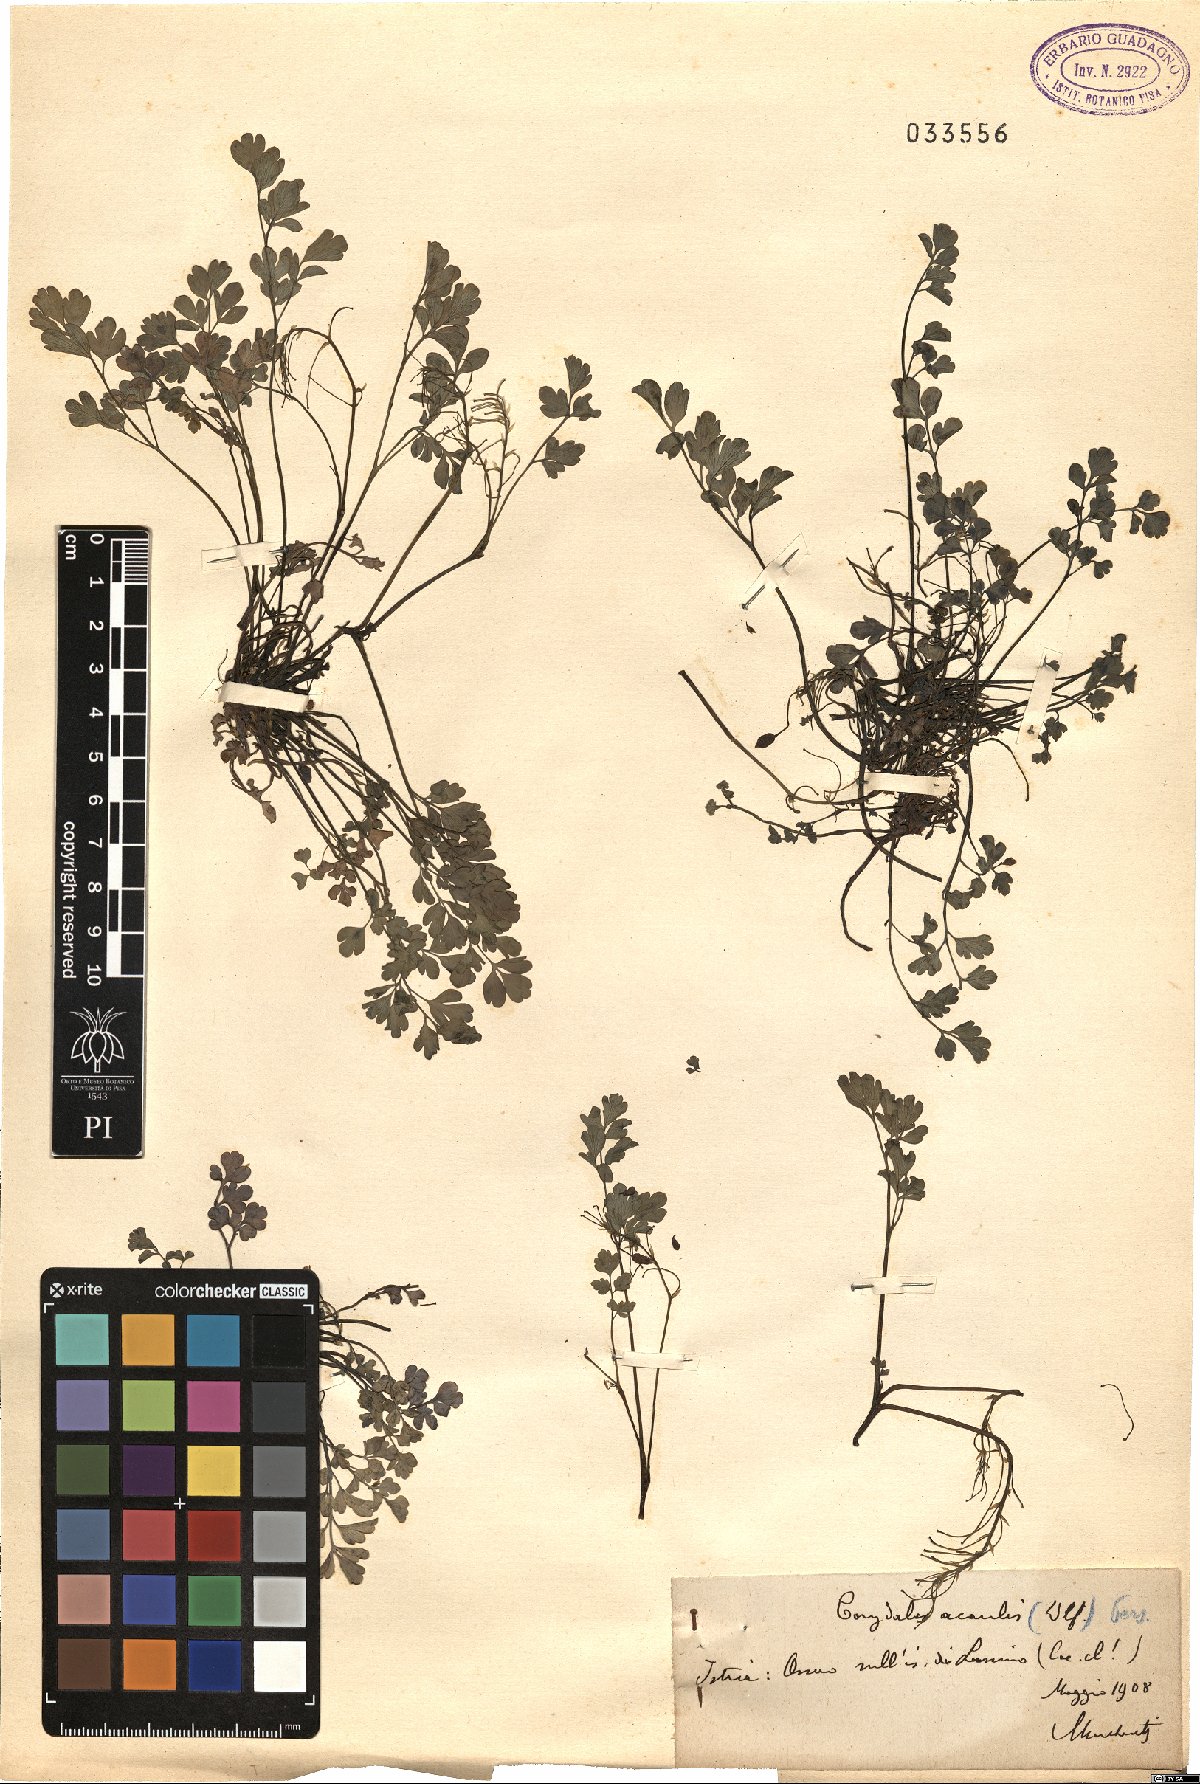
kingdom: Plantae
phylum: Tracheophyta
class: Magnoliopsida
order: Ranunculales
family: Papaveraceae
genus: Pseudofumaria
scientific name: Pseudofumaria alba
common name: Pale corydalis
